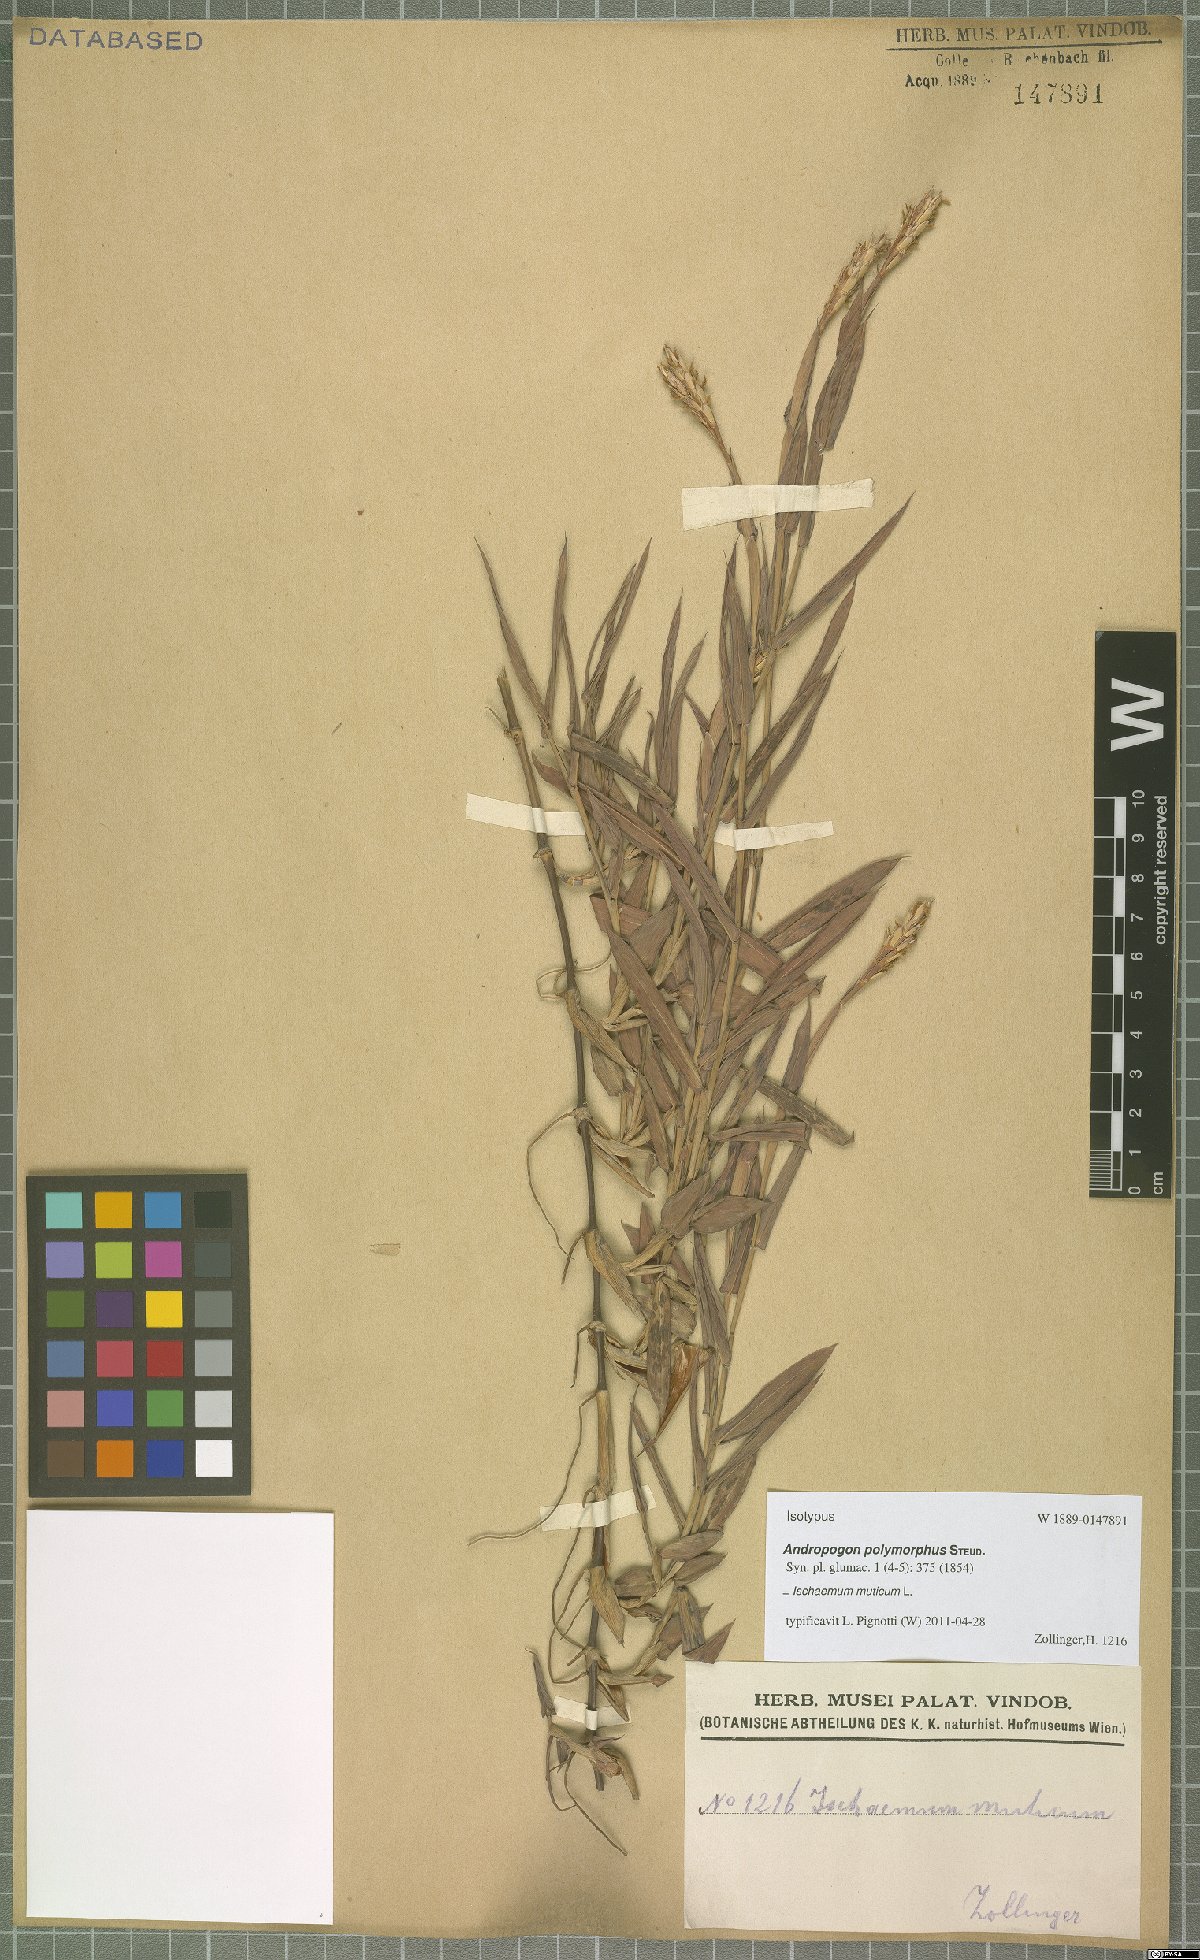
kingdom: Plantae
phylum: Tracheophyta
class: Liliopsida
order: Poales
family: Poaceae
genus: Ischaemum
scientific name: Ischaemum muticum
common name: Drought grass
